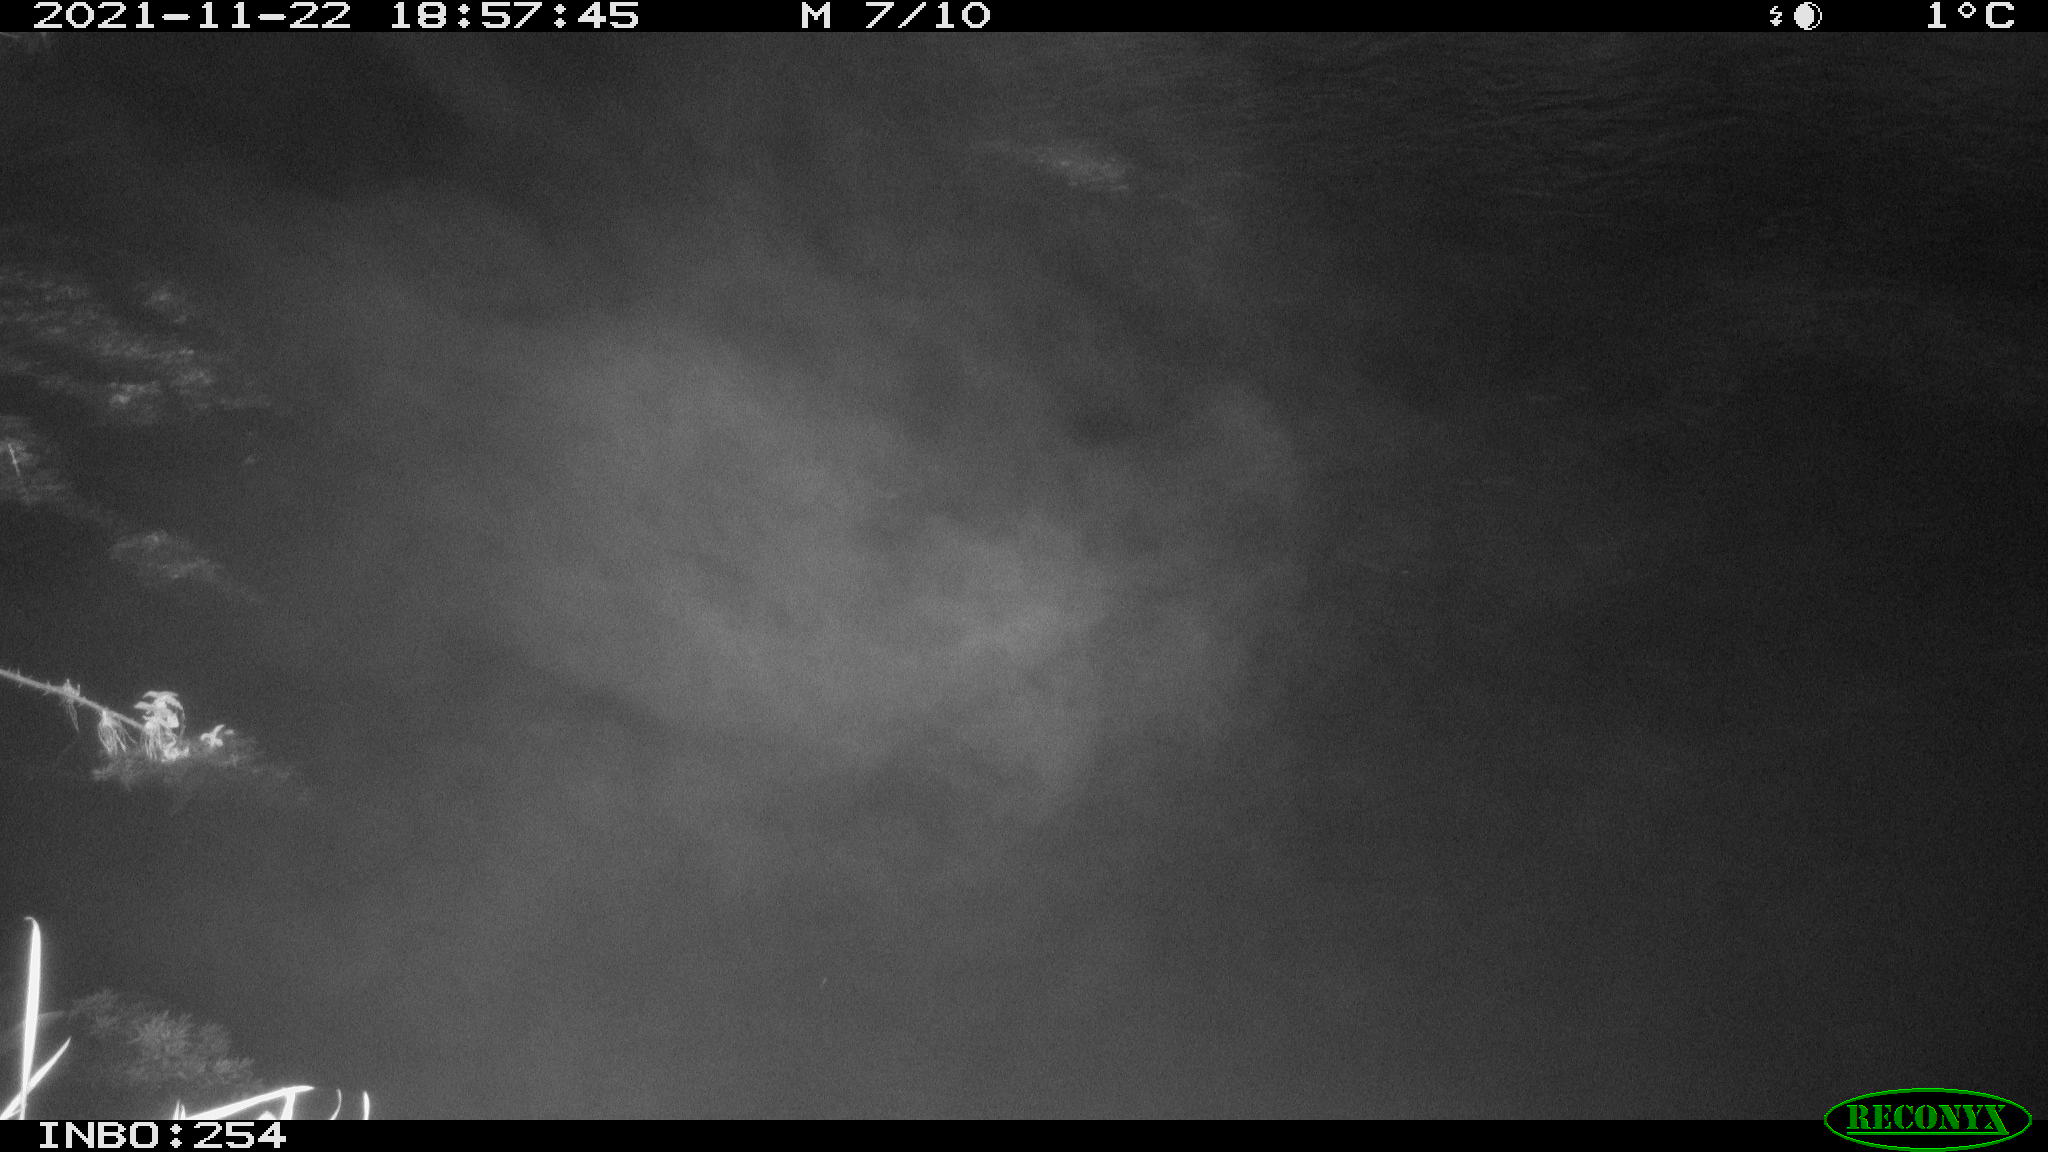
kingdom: Animalia
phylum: Chordata
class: Mammalia
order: Rodentia
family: Muridae
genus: Rattus
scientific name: Rattus norvegicus
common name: Brown rat
